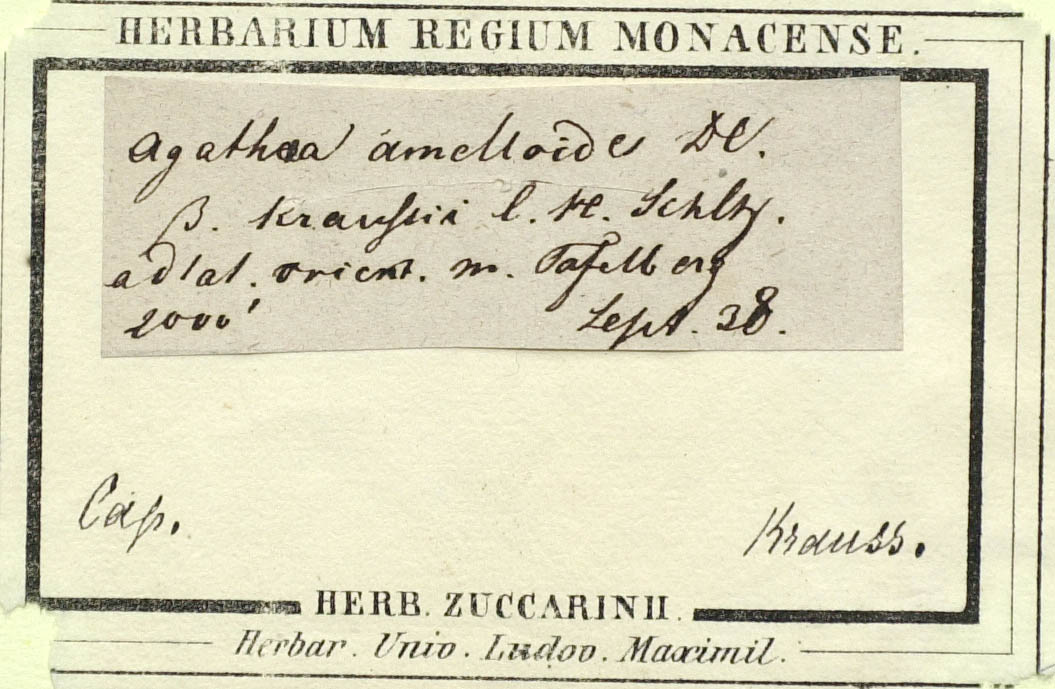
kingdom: Plantae
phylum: Tracheophyta
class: Magnoliopsida
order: Asterales
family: Asteraceae
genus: Felicia
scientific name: Felicia aethiopica
